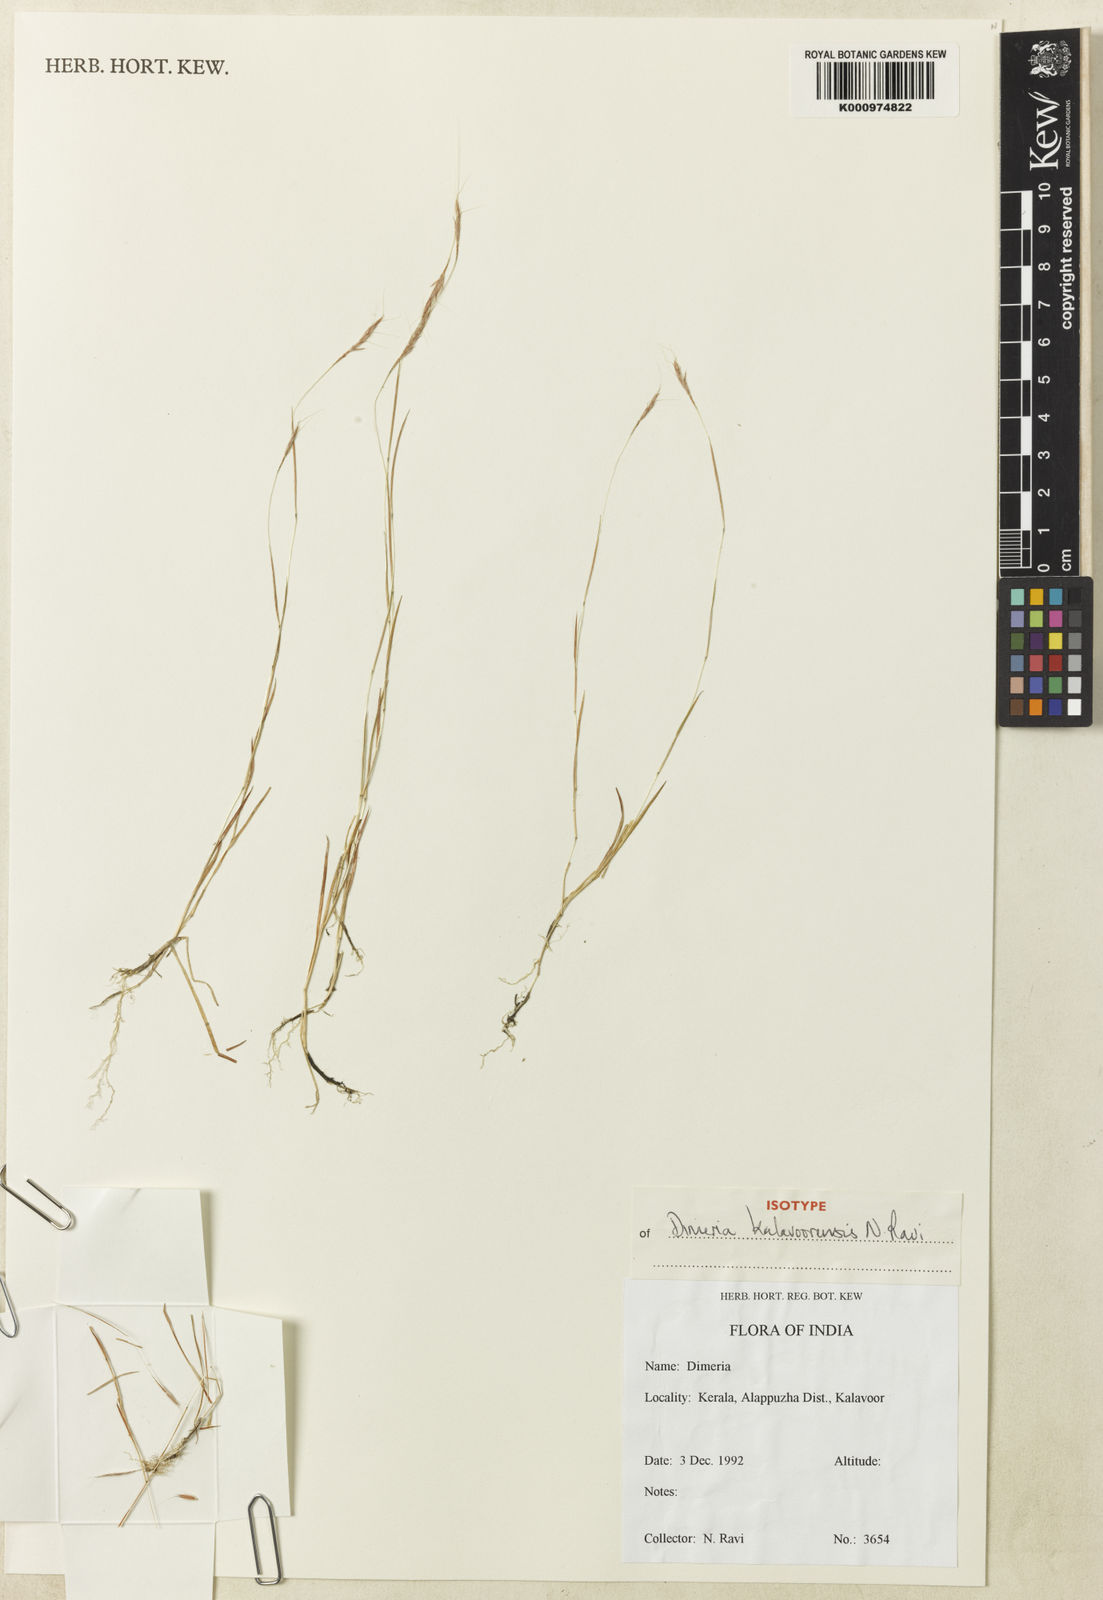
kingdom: Plantae
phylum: Tracheophyta
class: Liliopsida
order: Poales
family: Poaceae
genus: Dimeria
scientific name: Dimeria kalavoorensis
